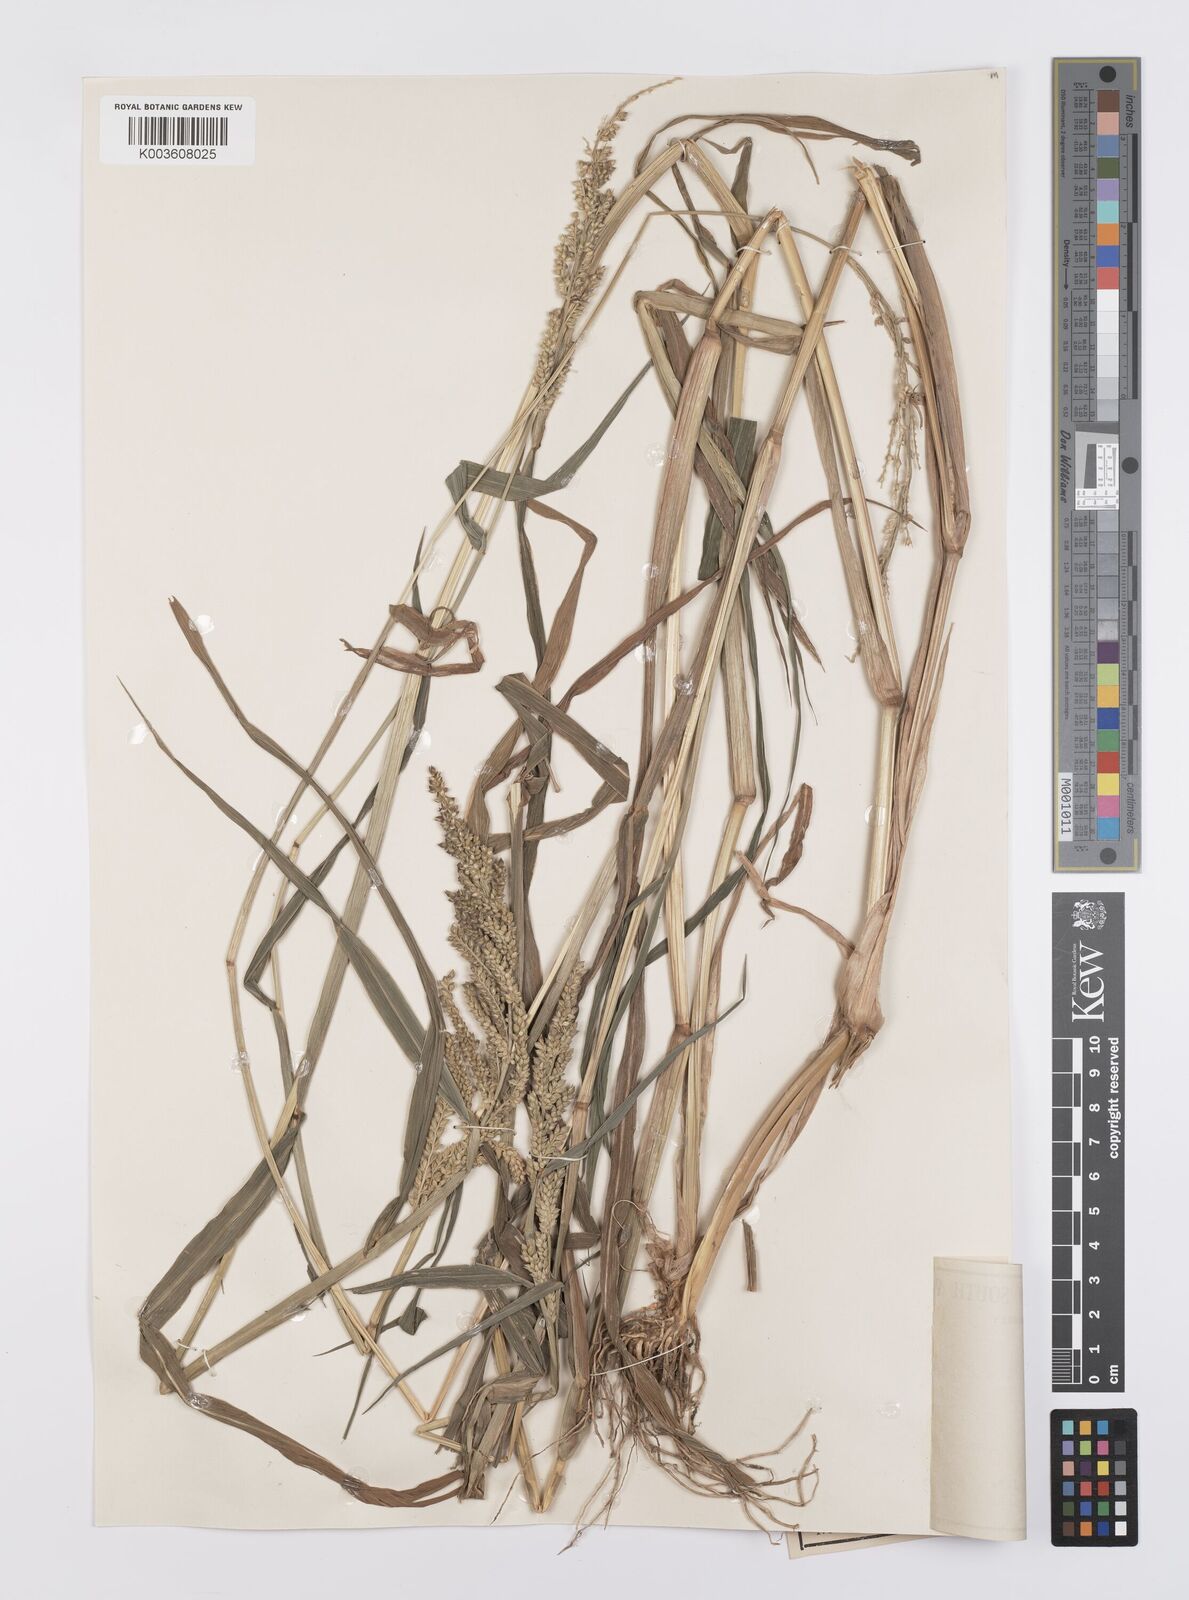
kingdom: Plantae
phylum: Tracheophyta
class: Liliopsida
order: Poales
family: Poaceae
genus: Echinochloa
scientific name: Echinochloa crus-galli
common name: Cockspur
